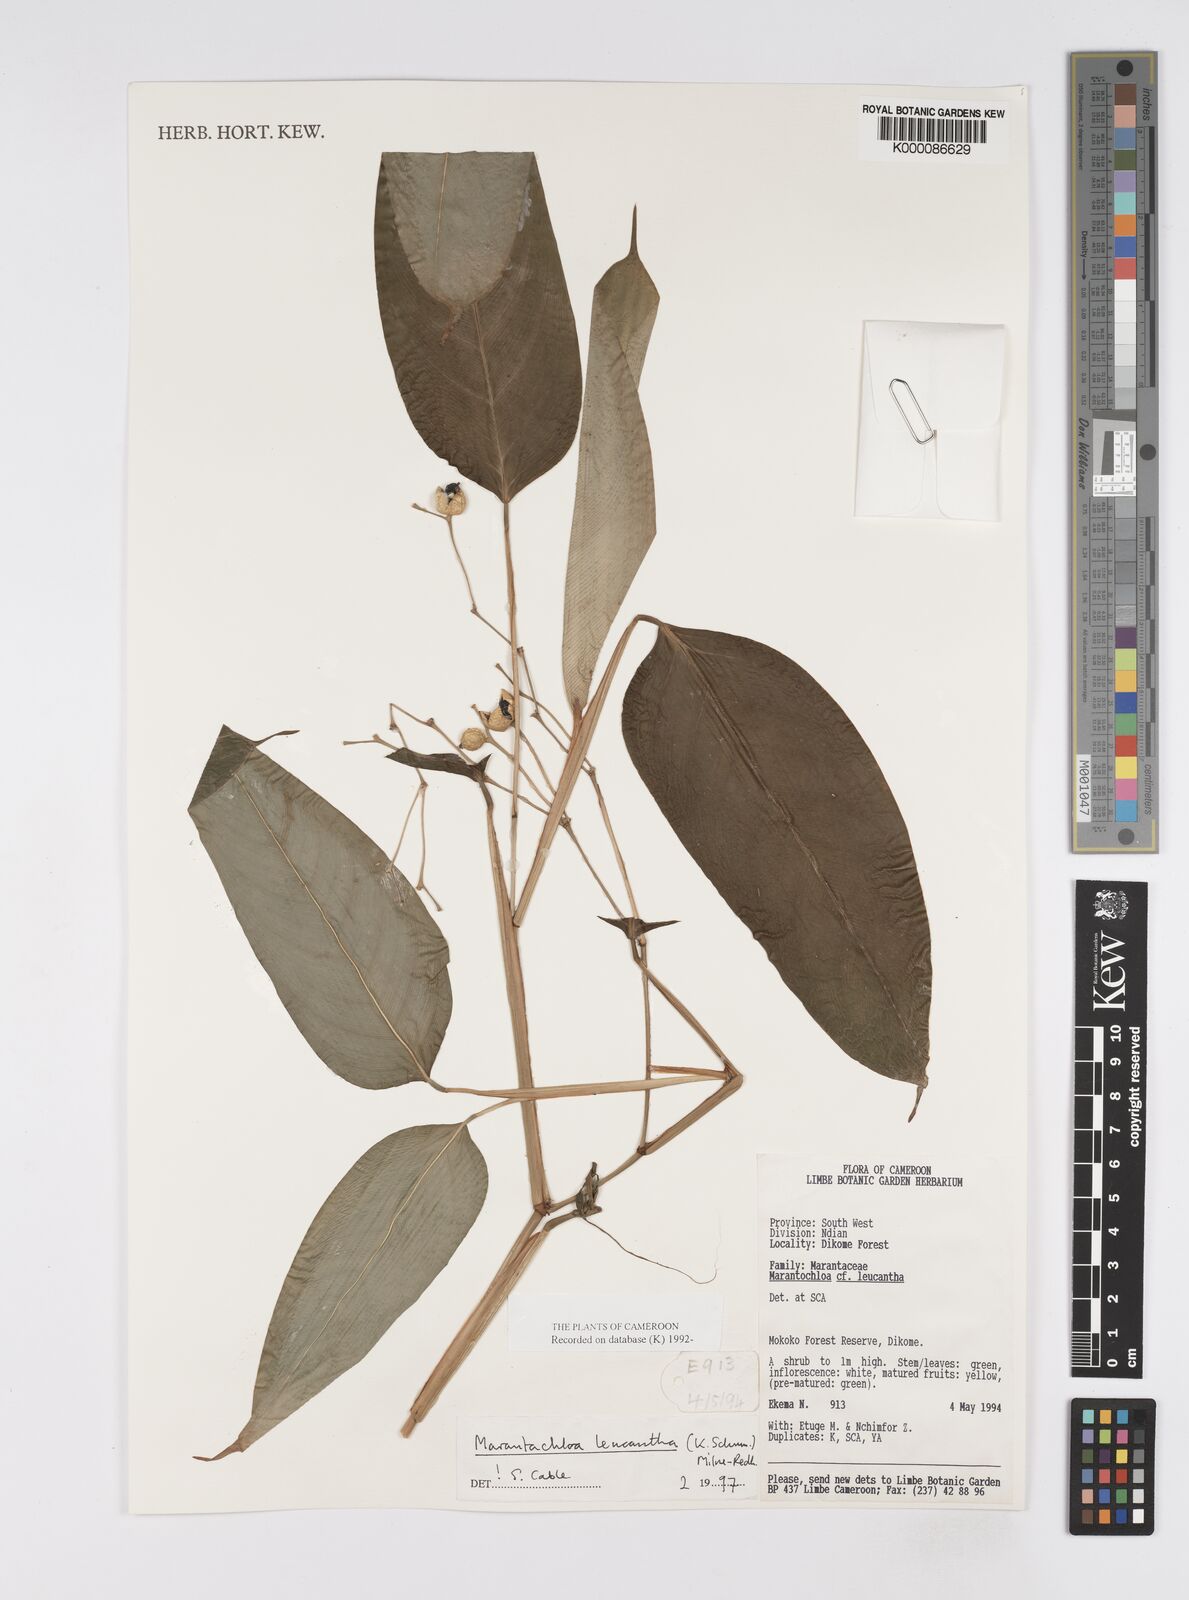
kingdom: Plantae
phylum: Tracheophyta
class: Liliopsida
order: Zingiberales
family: Marantaceae
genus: Marantochloa
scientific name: Marantochloa leucantha
